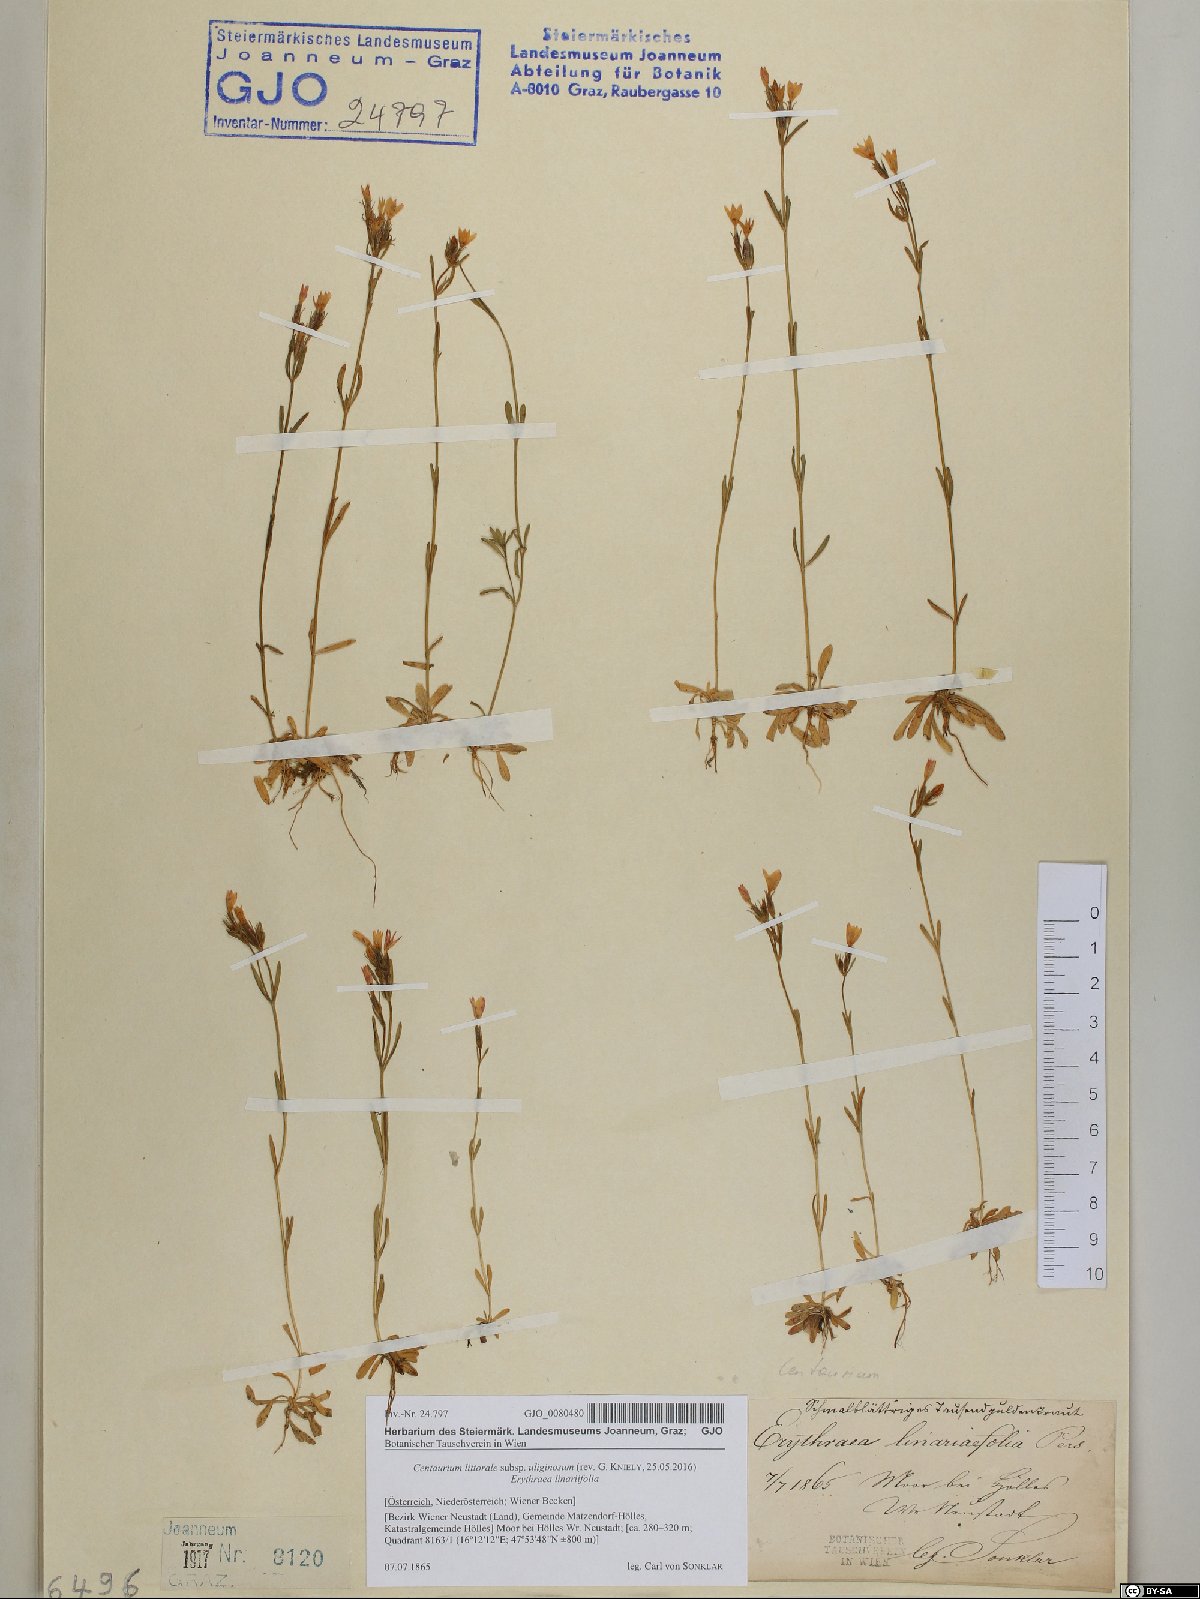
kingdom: Plantae
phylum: Tracheophyta
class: Magnoliopsida
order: Gentianales
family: Gentianaceae
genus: Centaurium
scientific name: Centaurium littorale
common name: Seaside centaury
